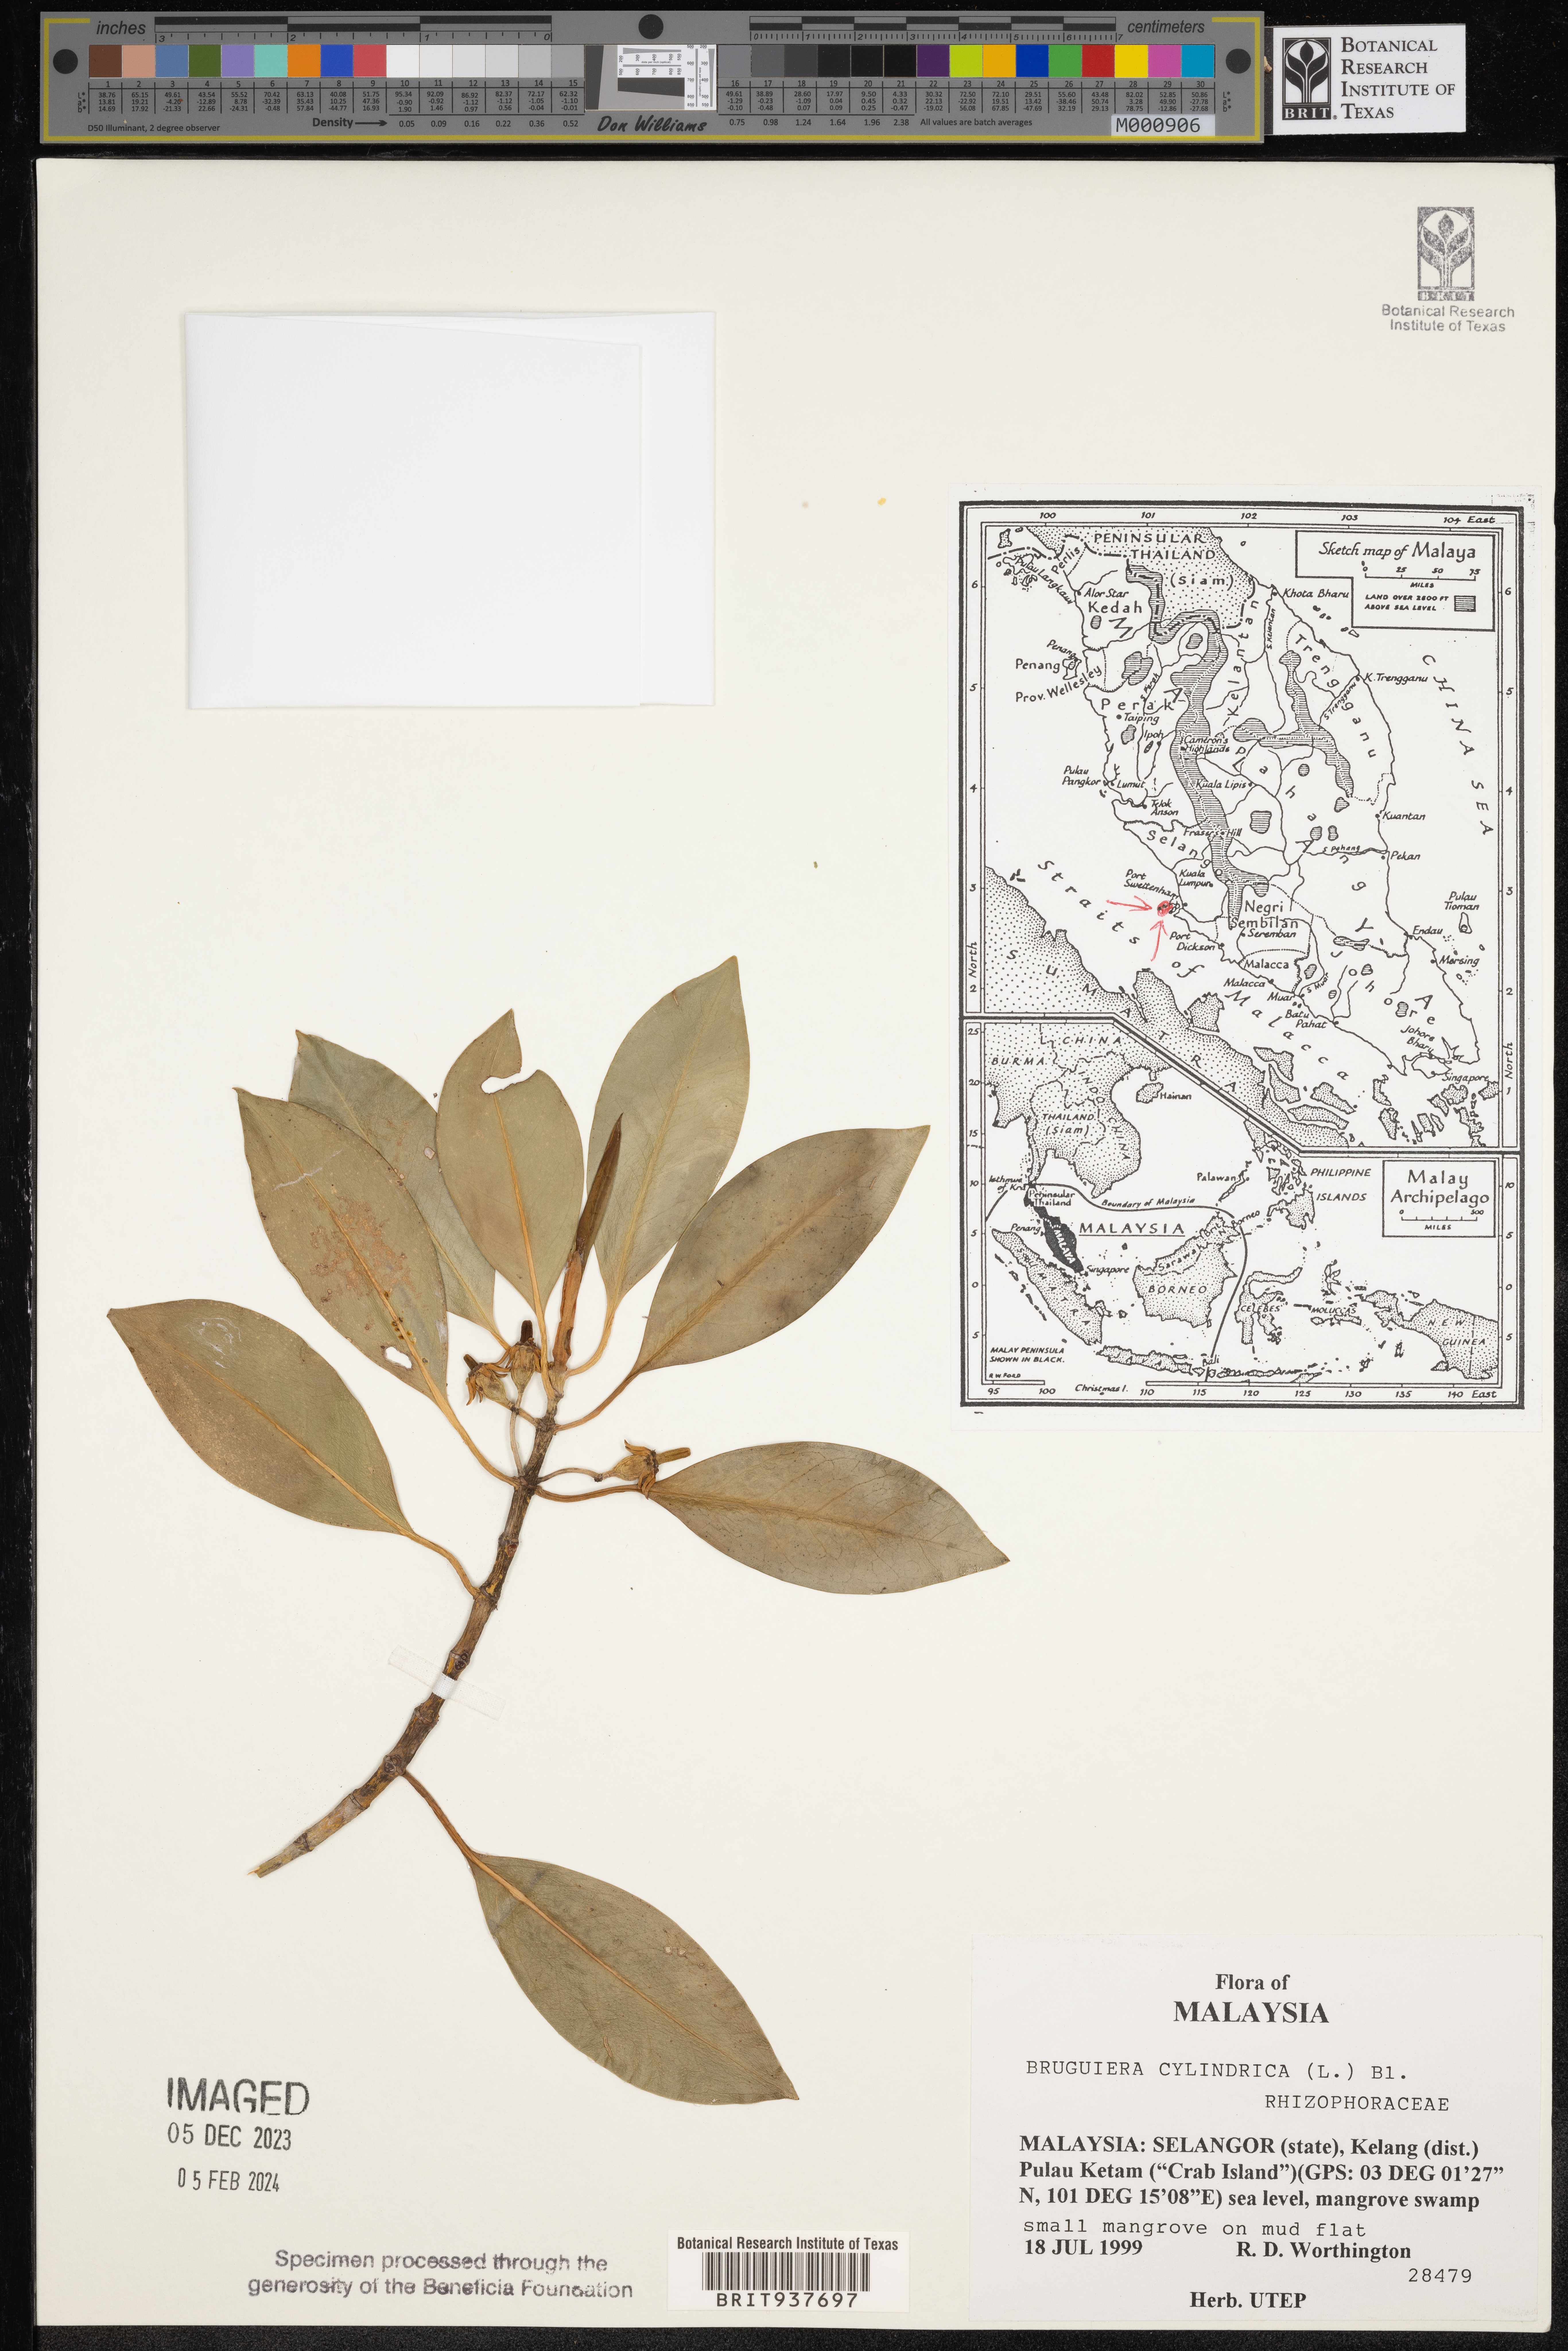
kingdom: Plantae
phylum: Tracheophyta
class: Magnoliopsida
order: Malpighiales
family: Rhizophoraceae
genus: Bruguiera
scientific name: Bruguiera
